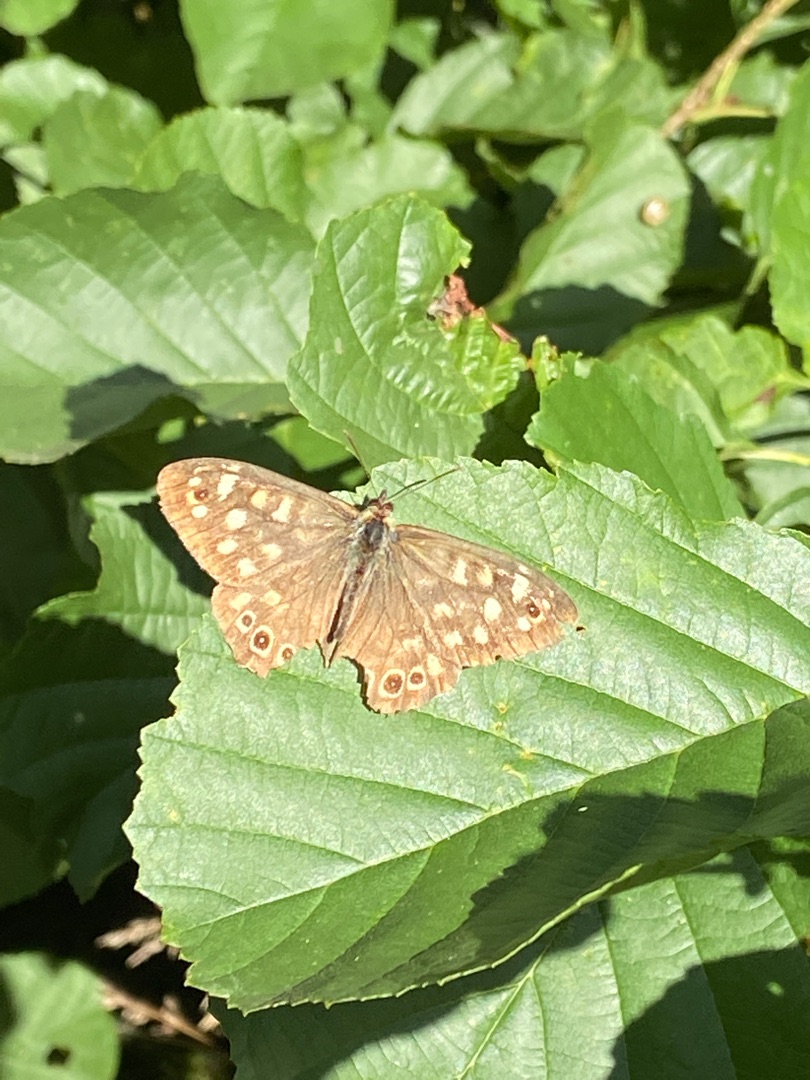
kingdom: Animalia
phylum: Arthropoda
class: Insecta
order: Lepidoptera
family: Nymphalidae
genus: Pararge
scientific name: Pararge aegeria
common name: Skovrandøje
